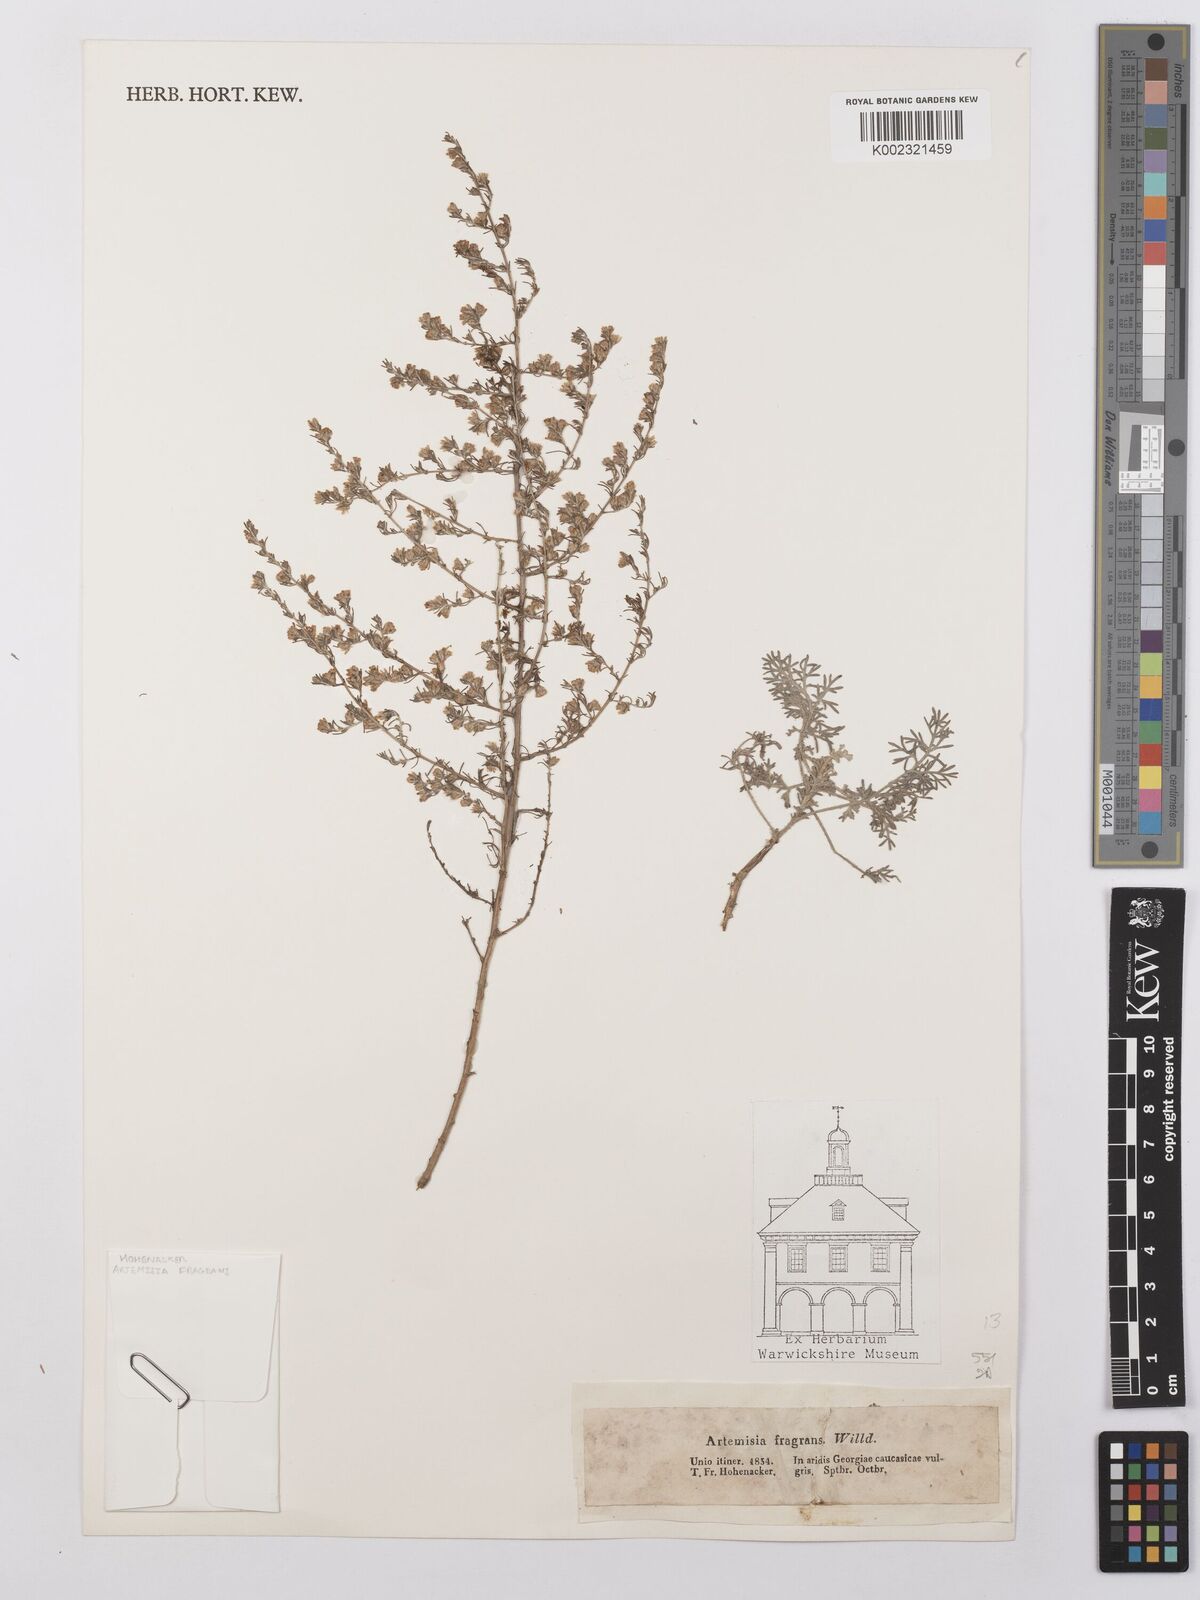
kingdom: Plantae
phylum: Tracheophyta
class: Magnoliopsida
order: Asterales
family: Asteraceae
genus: Artemisia
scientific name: Artemisia fragrans
